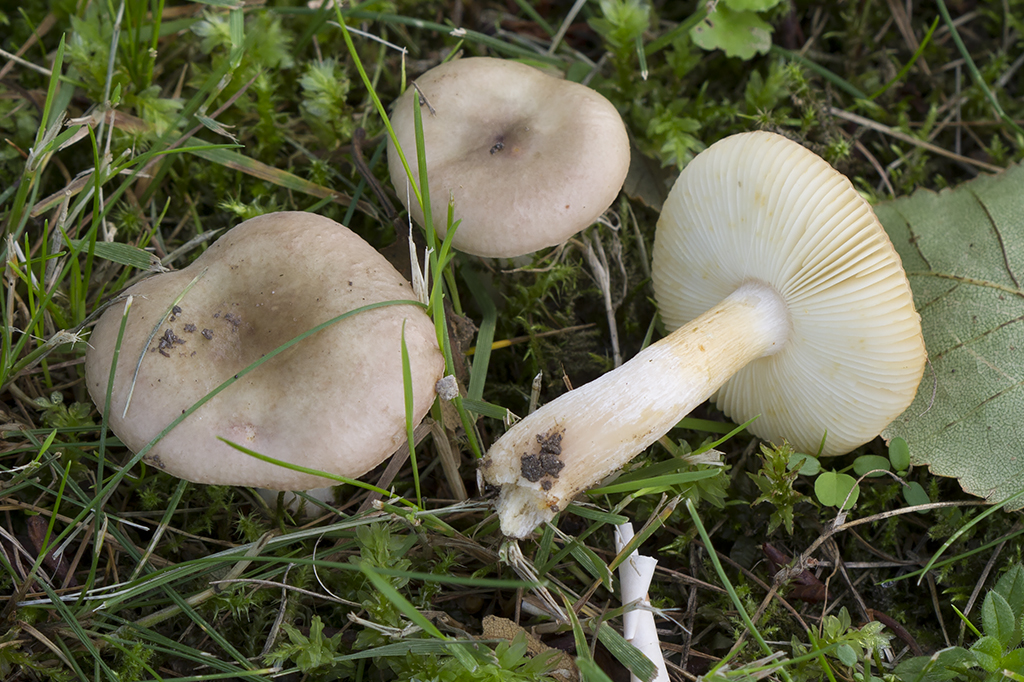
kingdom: Fungi
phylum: Basidiomycota
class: Agaricomycetes
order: Russulales
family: Russulaceae
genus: Russula
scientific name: Russula versicolor
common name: foranderlig skørhat
